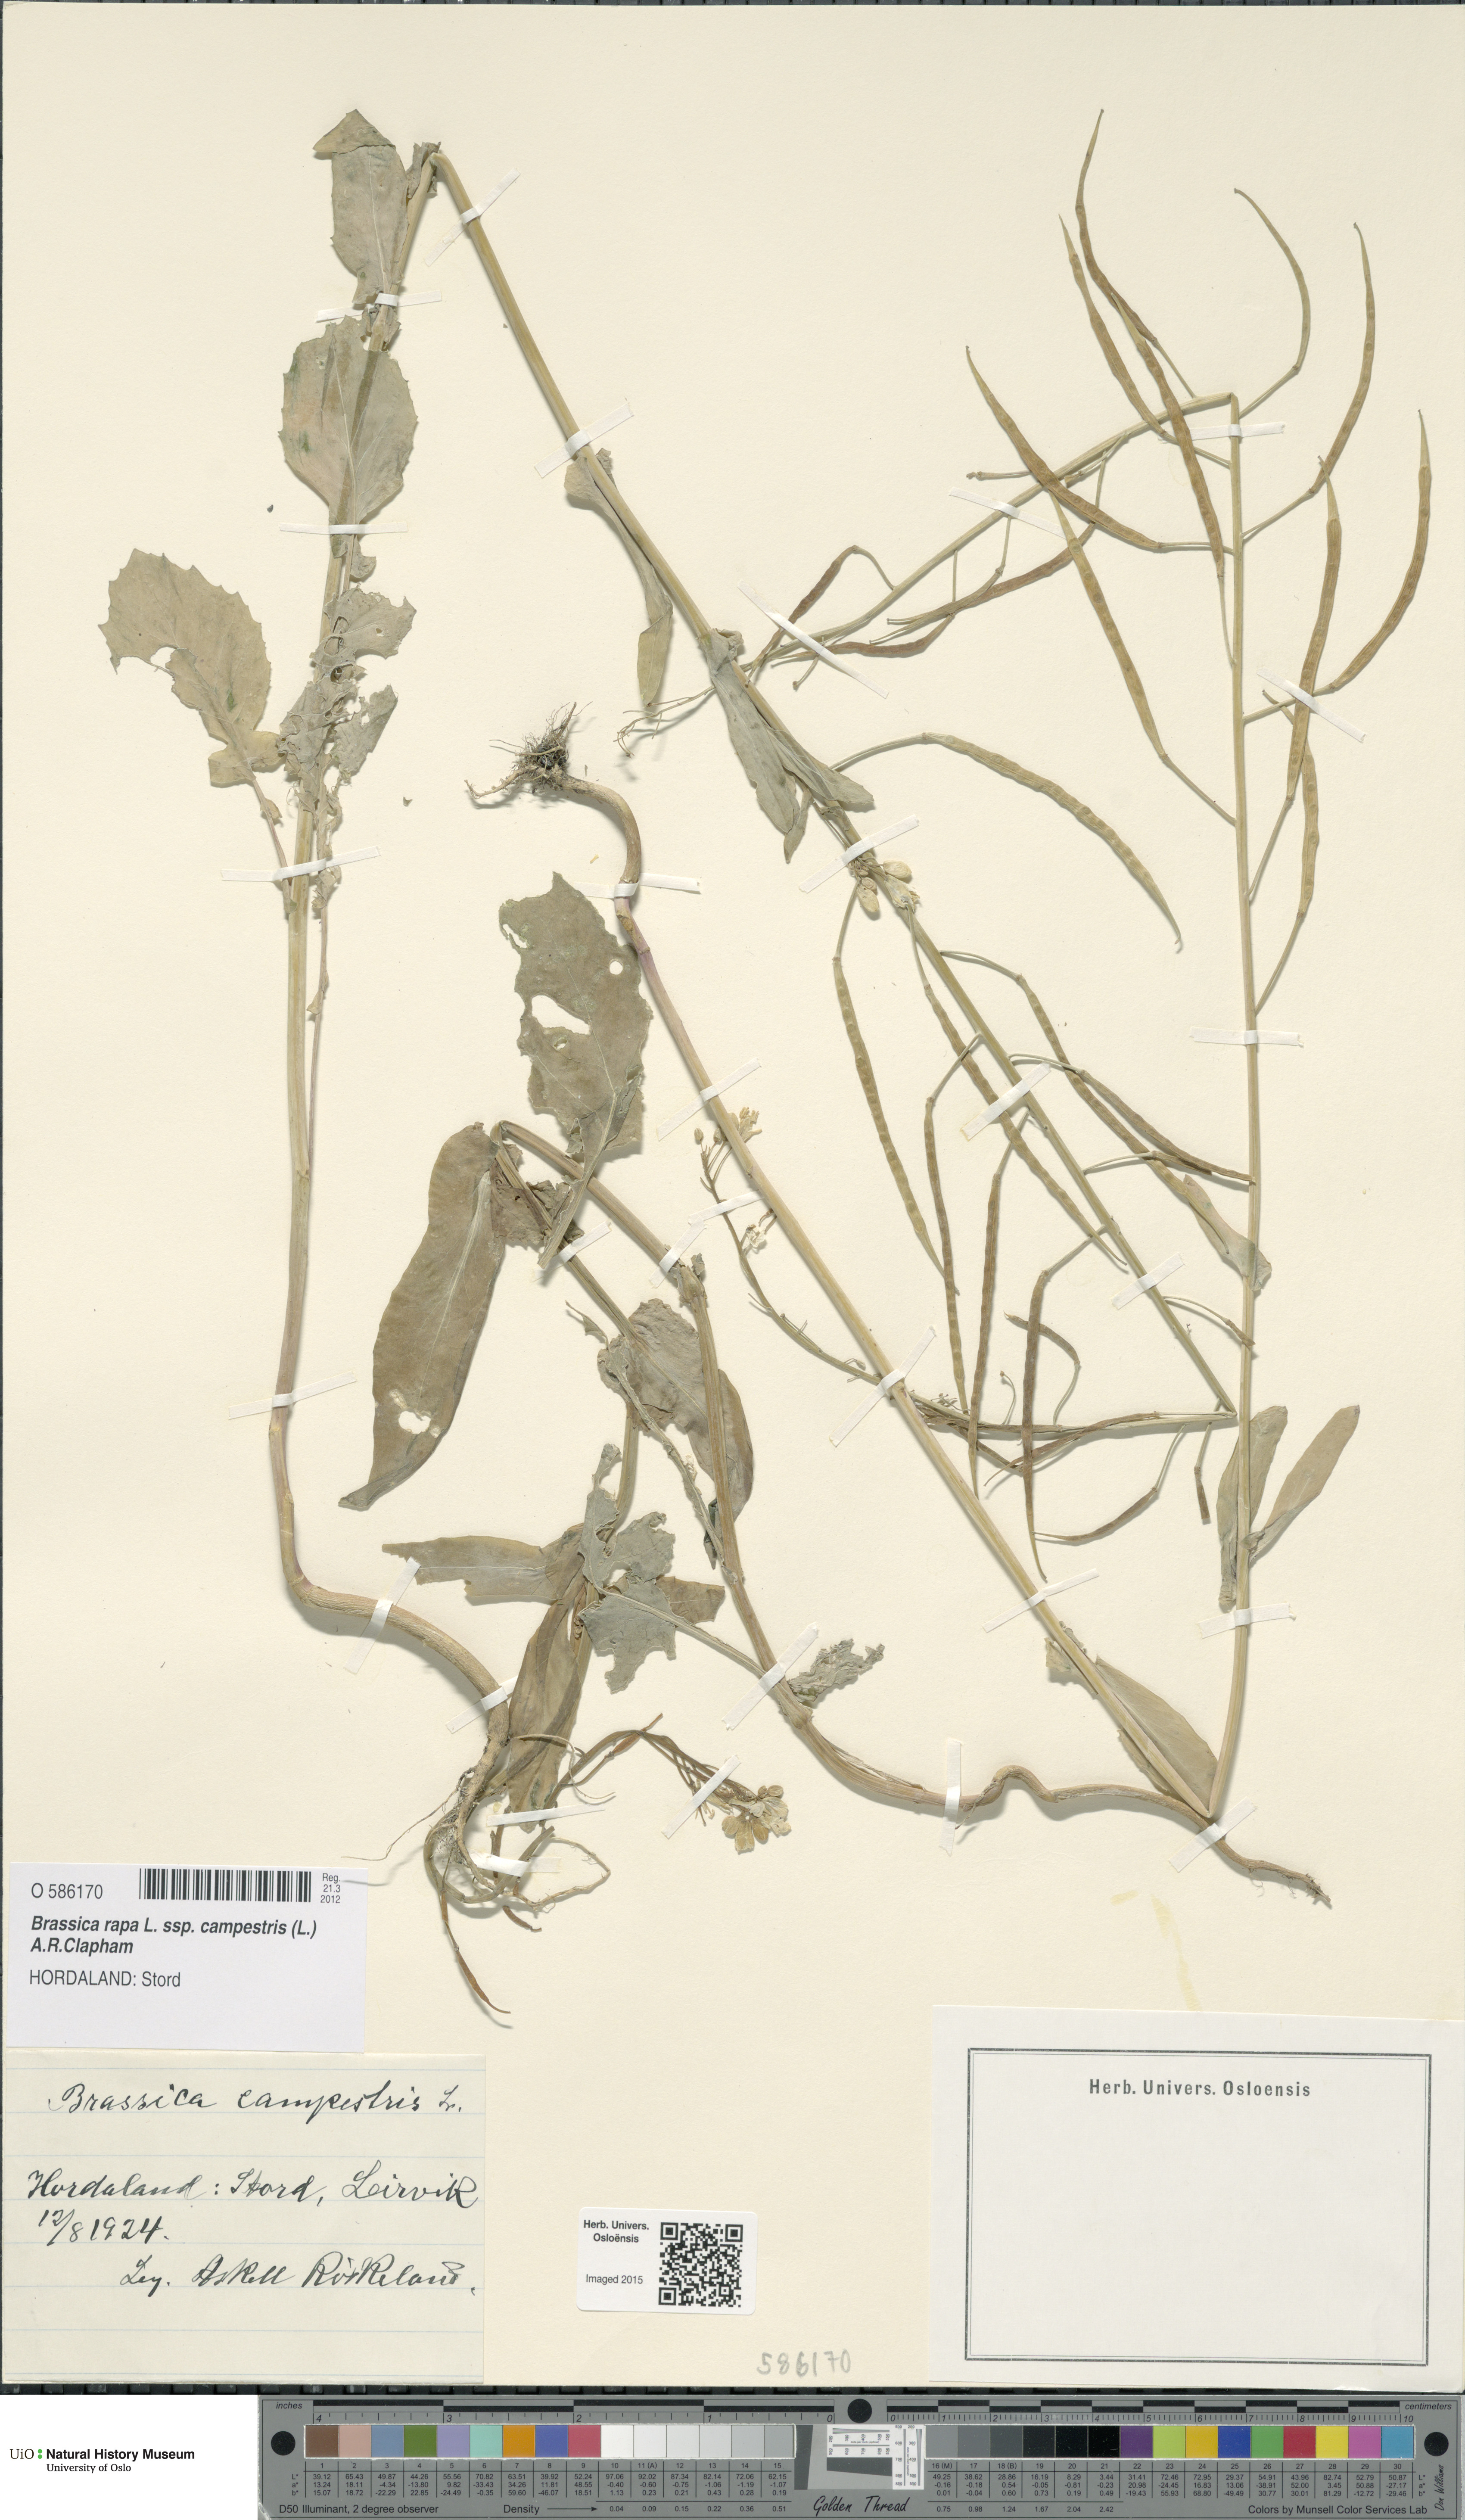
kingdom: Plantae
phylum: Tracheophyta
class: Magnoliopsida
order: Brassicales
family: Brassicaceae
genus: Brassica
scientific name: Brassica rapa
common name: Field mustard
